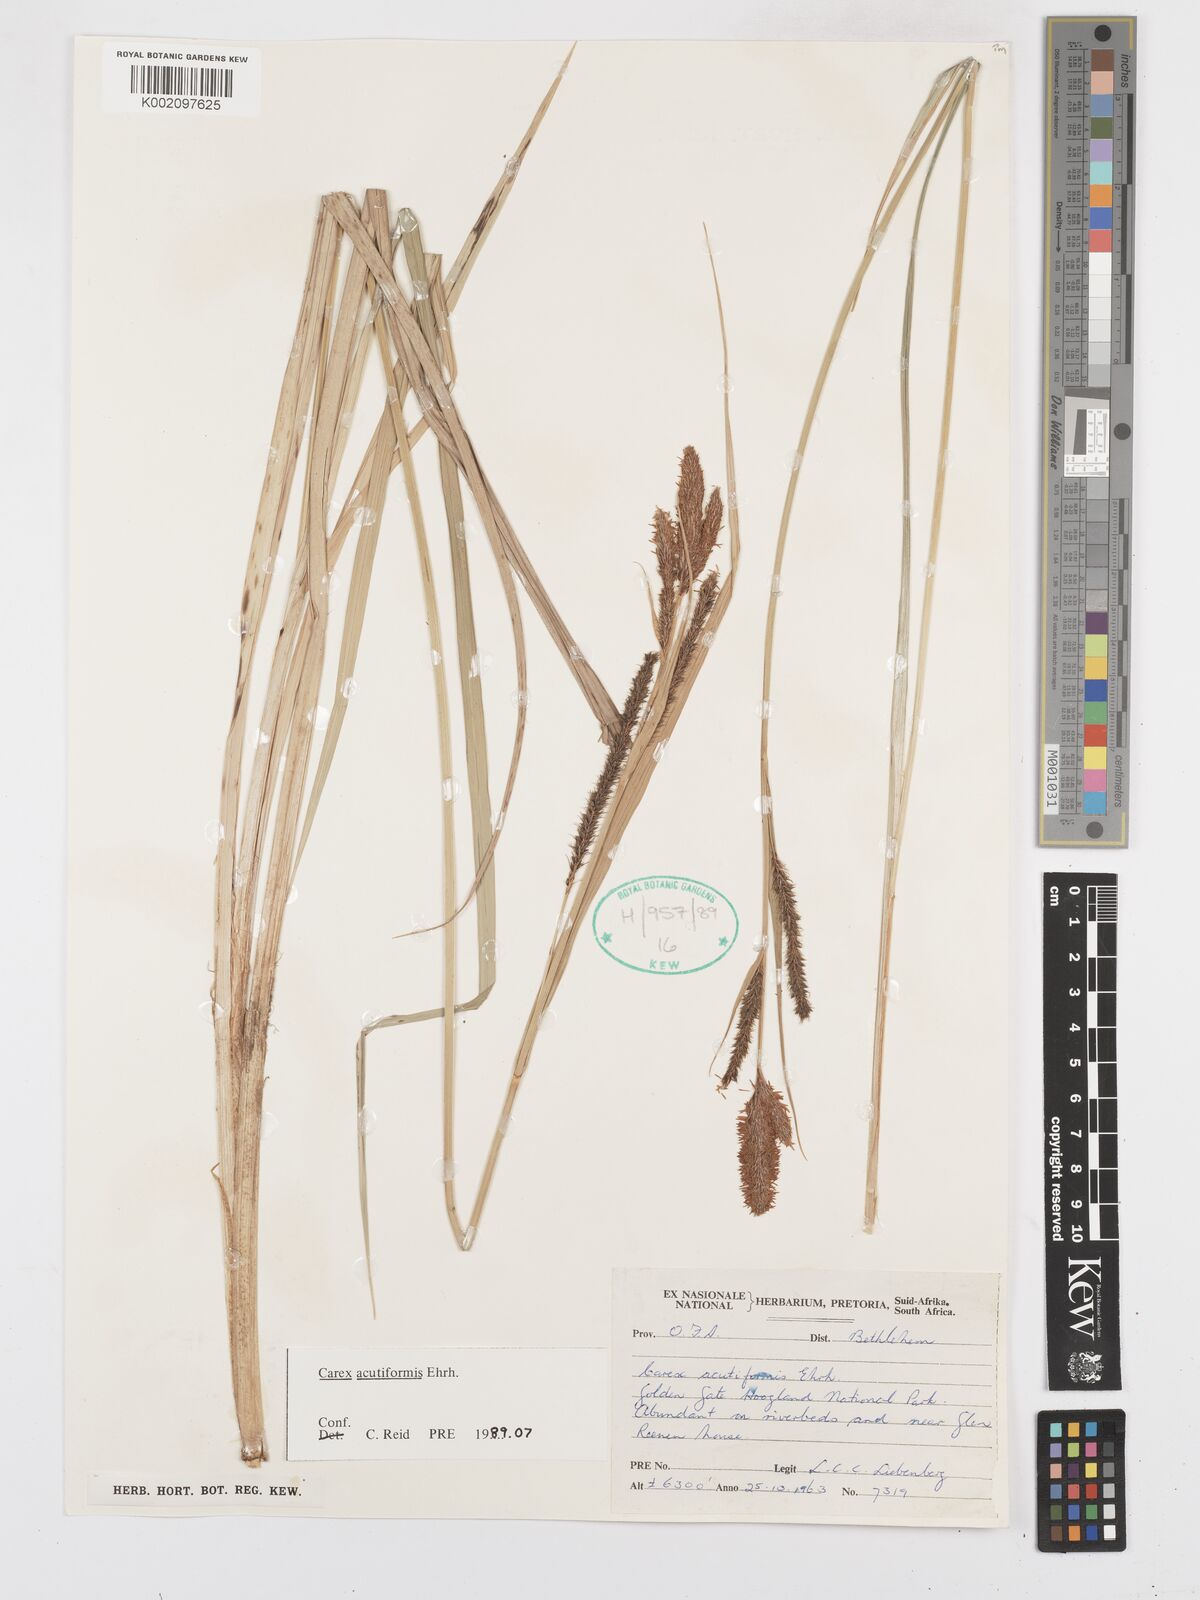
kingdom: Plantae
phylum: Tracheophyta
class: Liliopsida
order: Poales
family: Cyperaceae
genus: Carex
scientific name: Carex acutiformis
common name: Lesser pond-sedge
